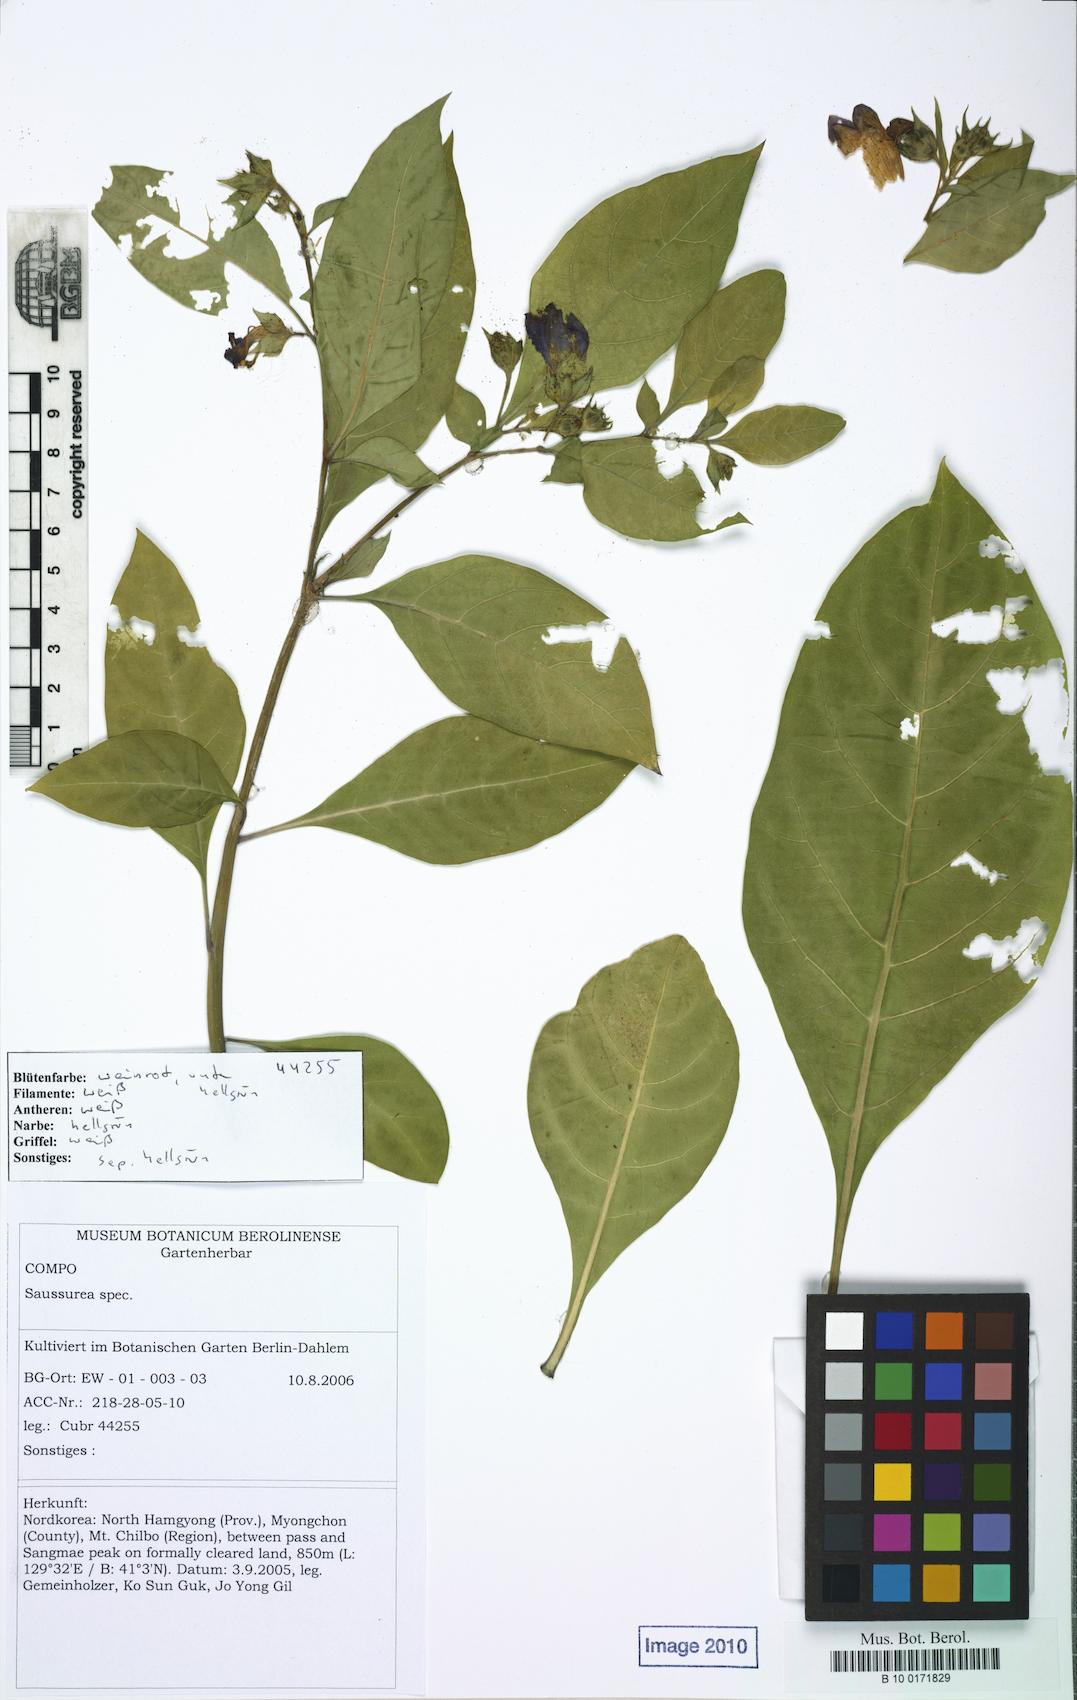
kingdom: Plantae
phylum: Tracheophyta
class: Magnoliopsida
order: Solanales
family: Solanaceae
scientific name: Solanaceae
